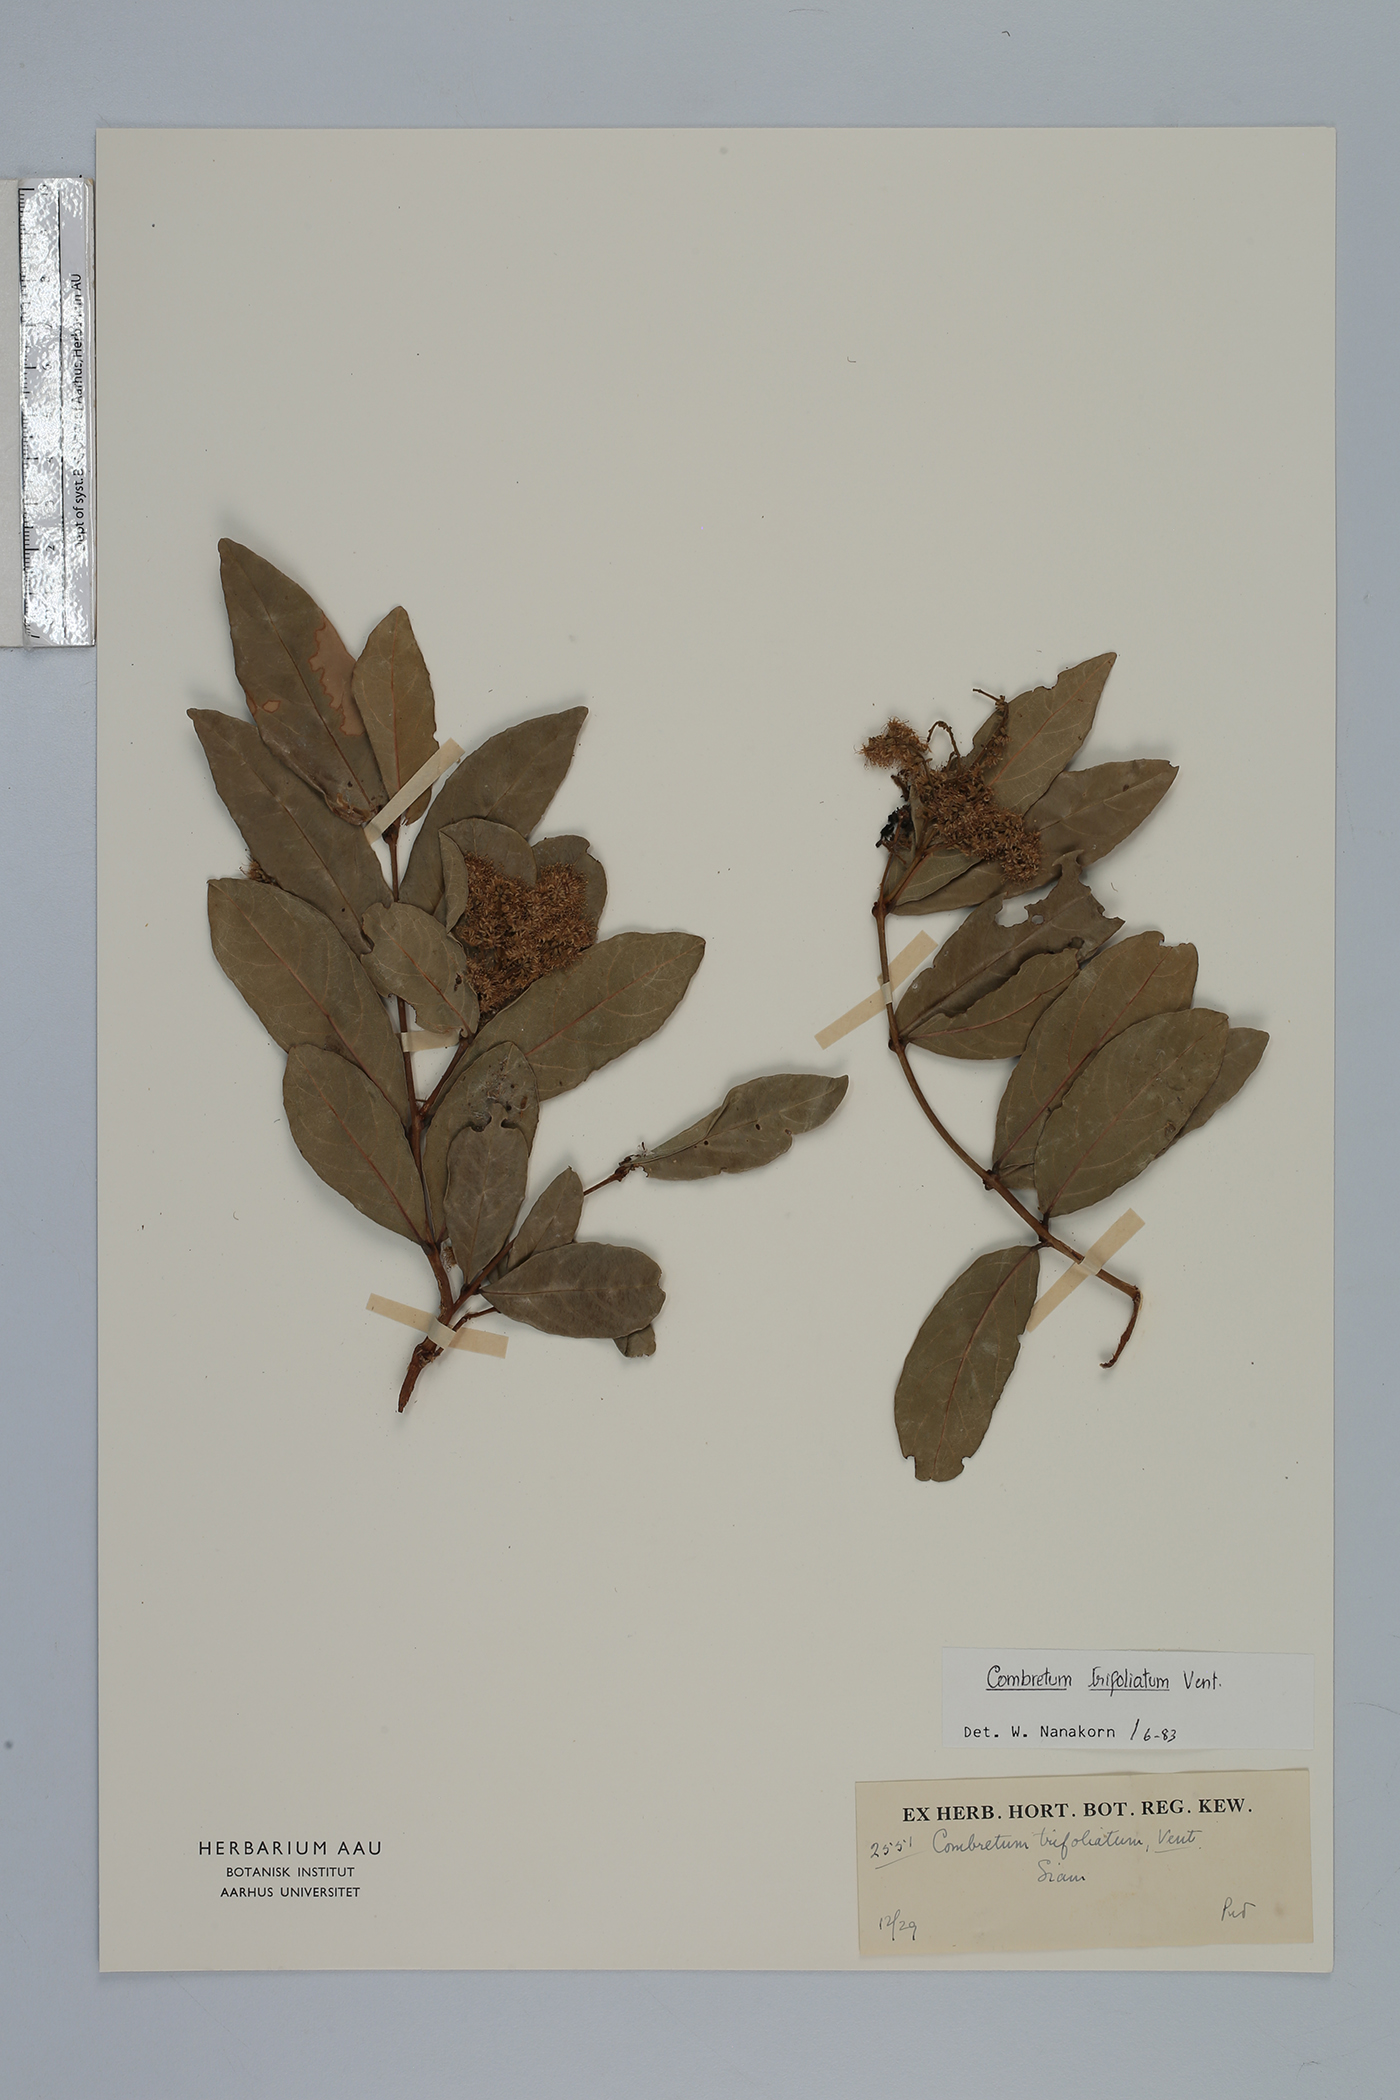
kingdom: Plantae
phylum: Tracheophyta
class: Magnoliopsida
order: Myrtales
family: Combretaceae
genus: Combretum
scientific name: Combretum trifoliatum
